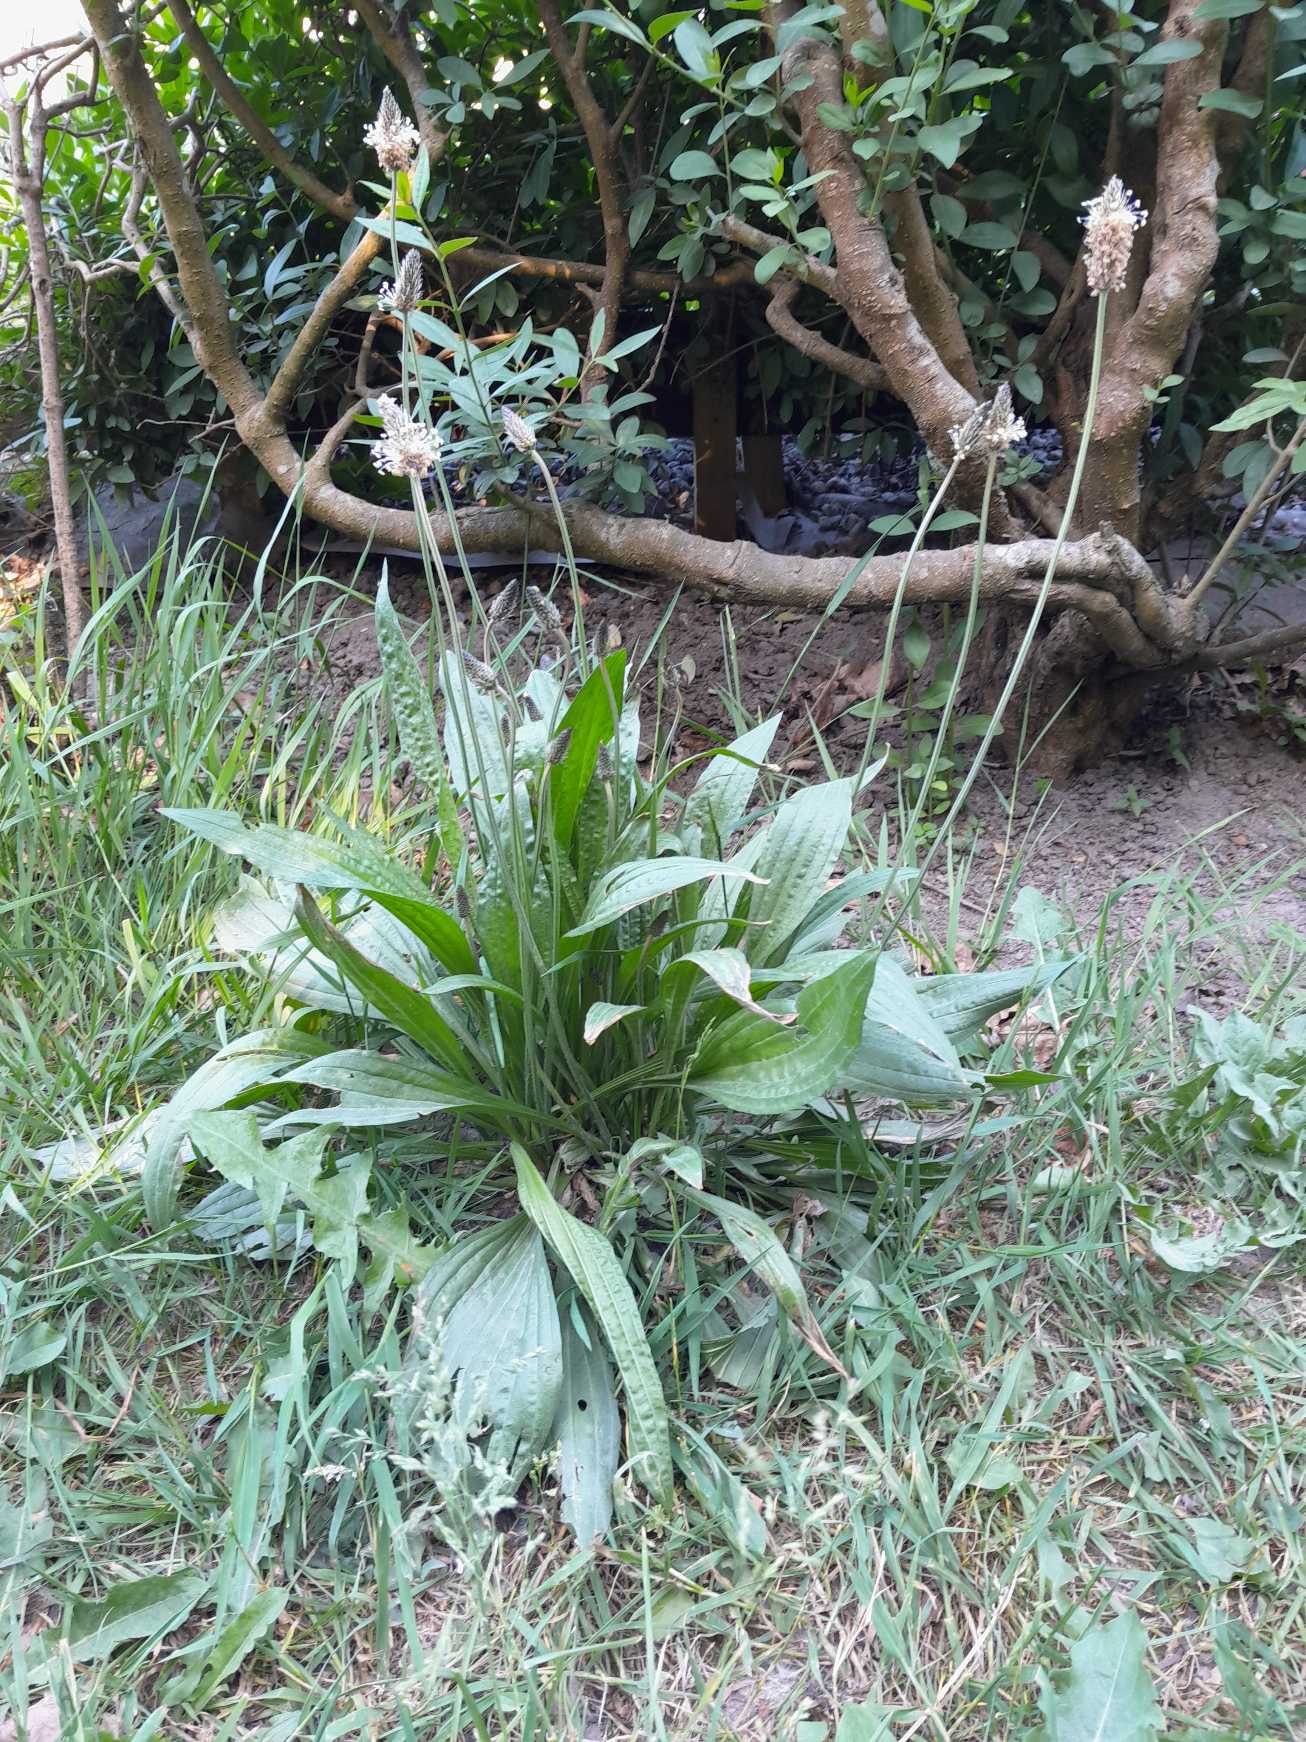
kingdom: Plantae
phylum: Tracheophyta
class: Magnoliopsida
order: Lamiales
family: Plantaginaceae
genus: Plantago
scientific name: Plantago lanceolata
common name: Lancet-vejbred
